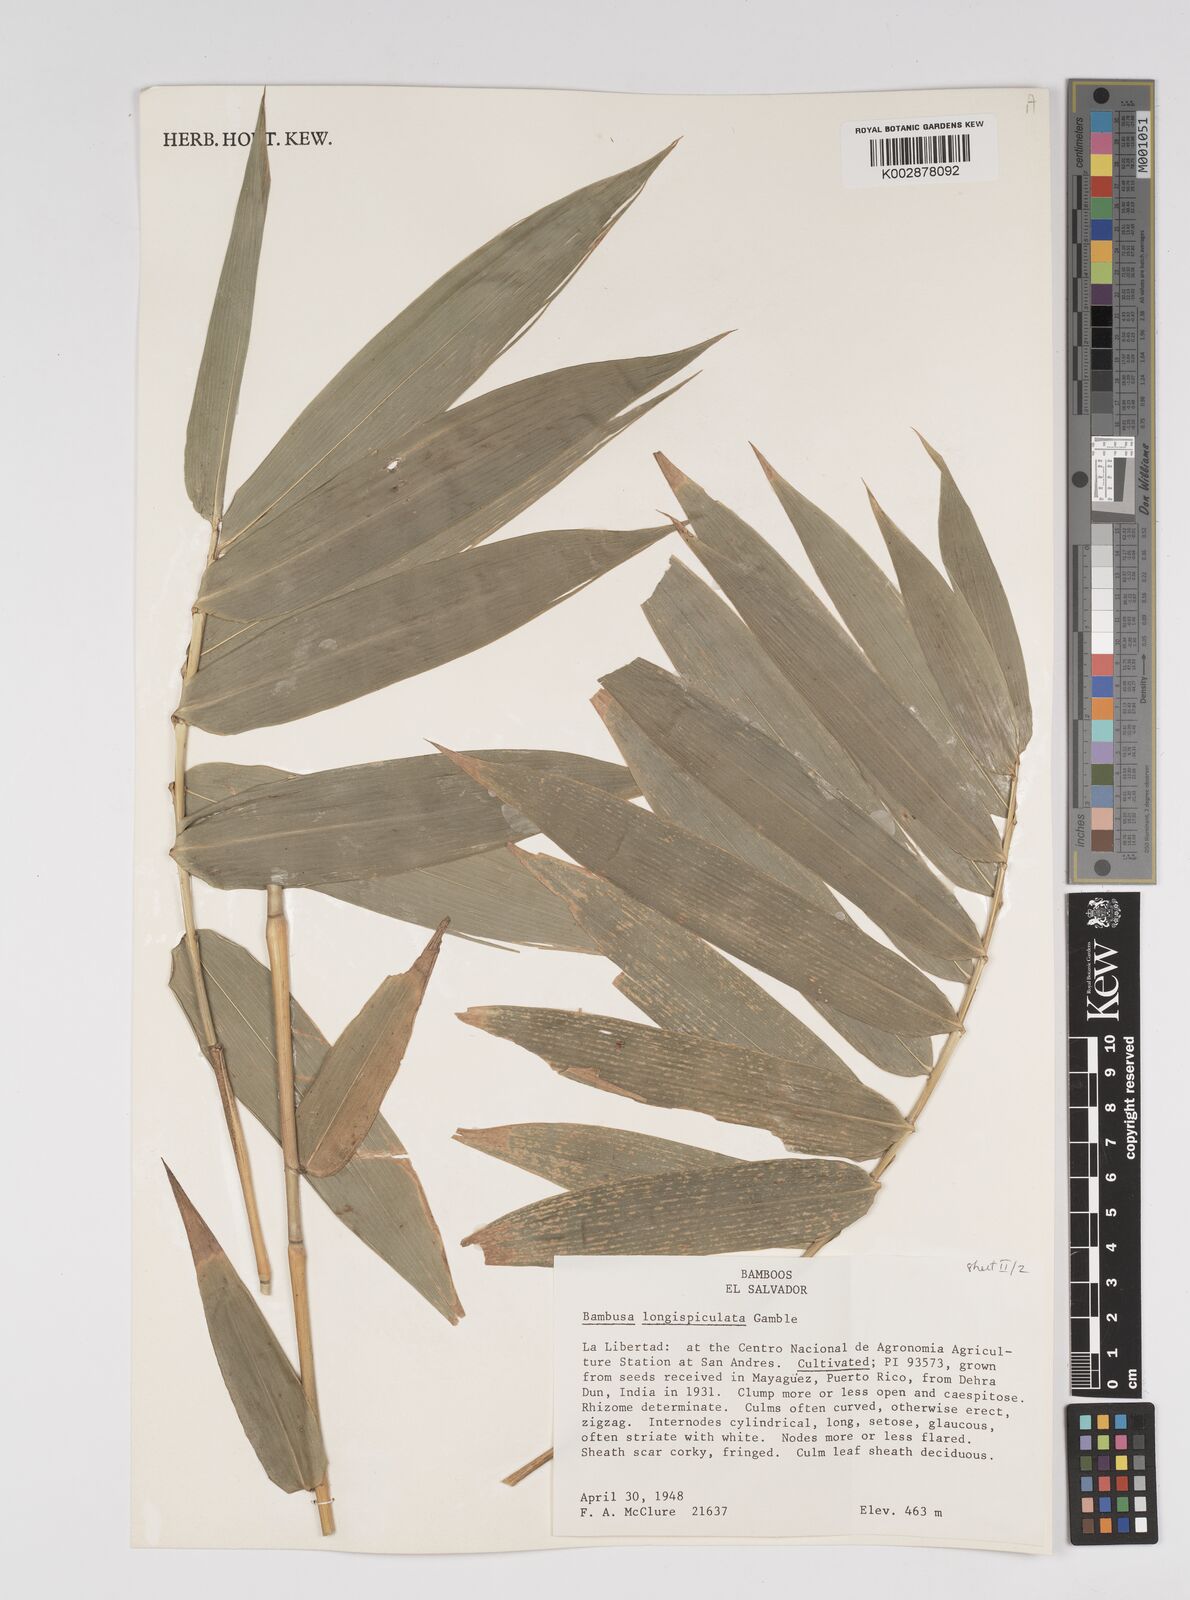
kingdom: Plantae
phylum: Tracheophyta
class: Liliopsida
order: Poales
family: Poaceae
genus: Bambusa
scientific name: Bambusa longispiculata
